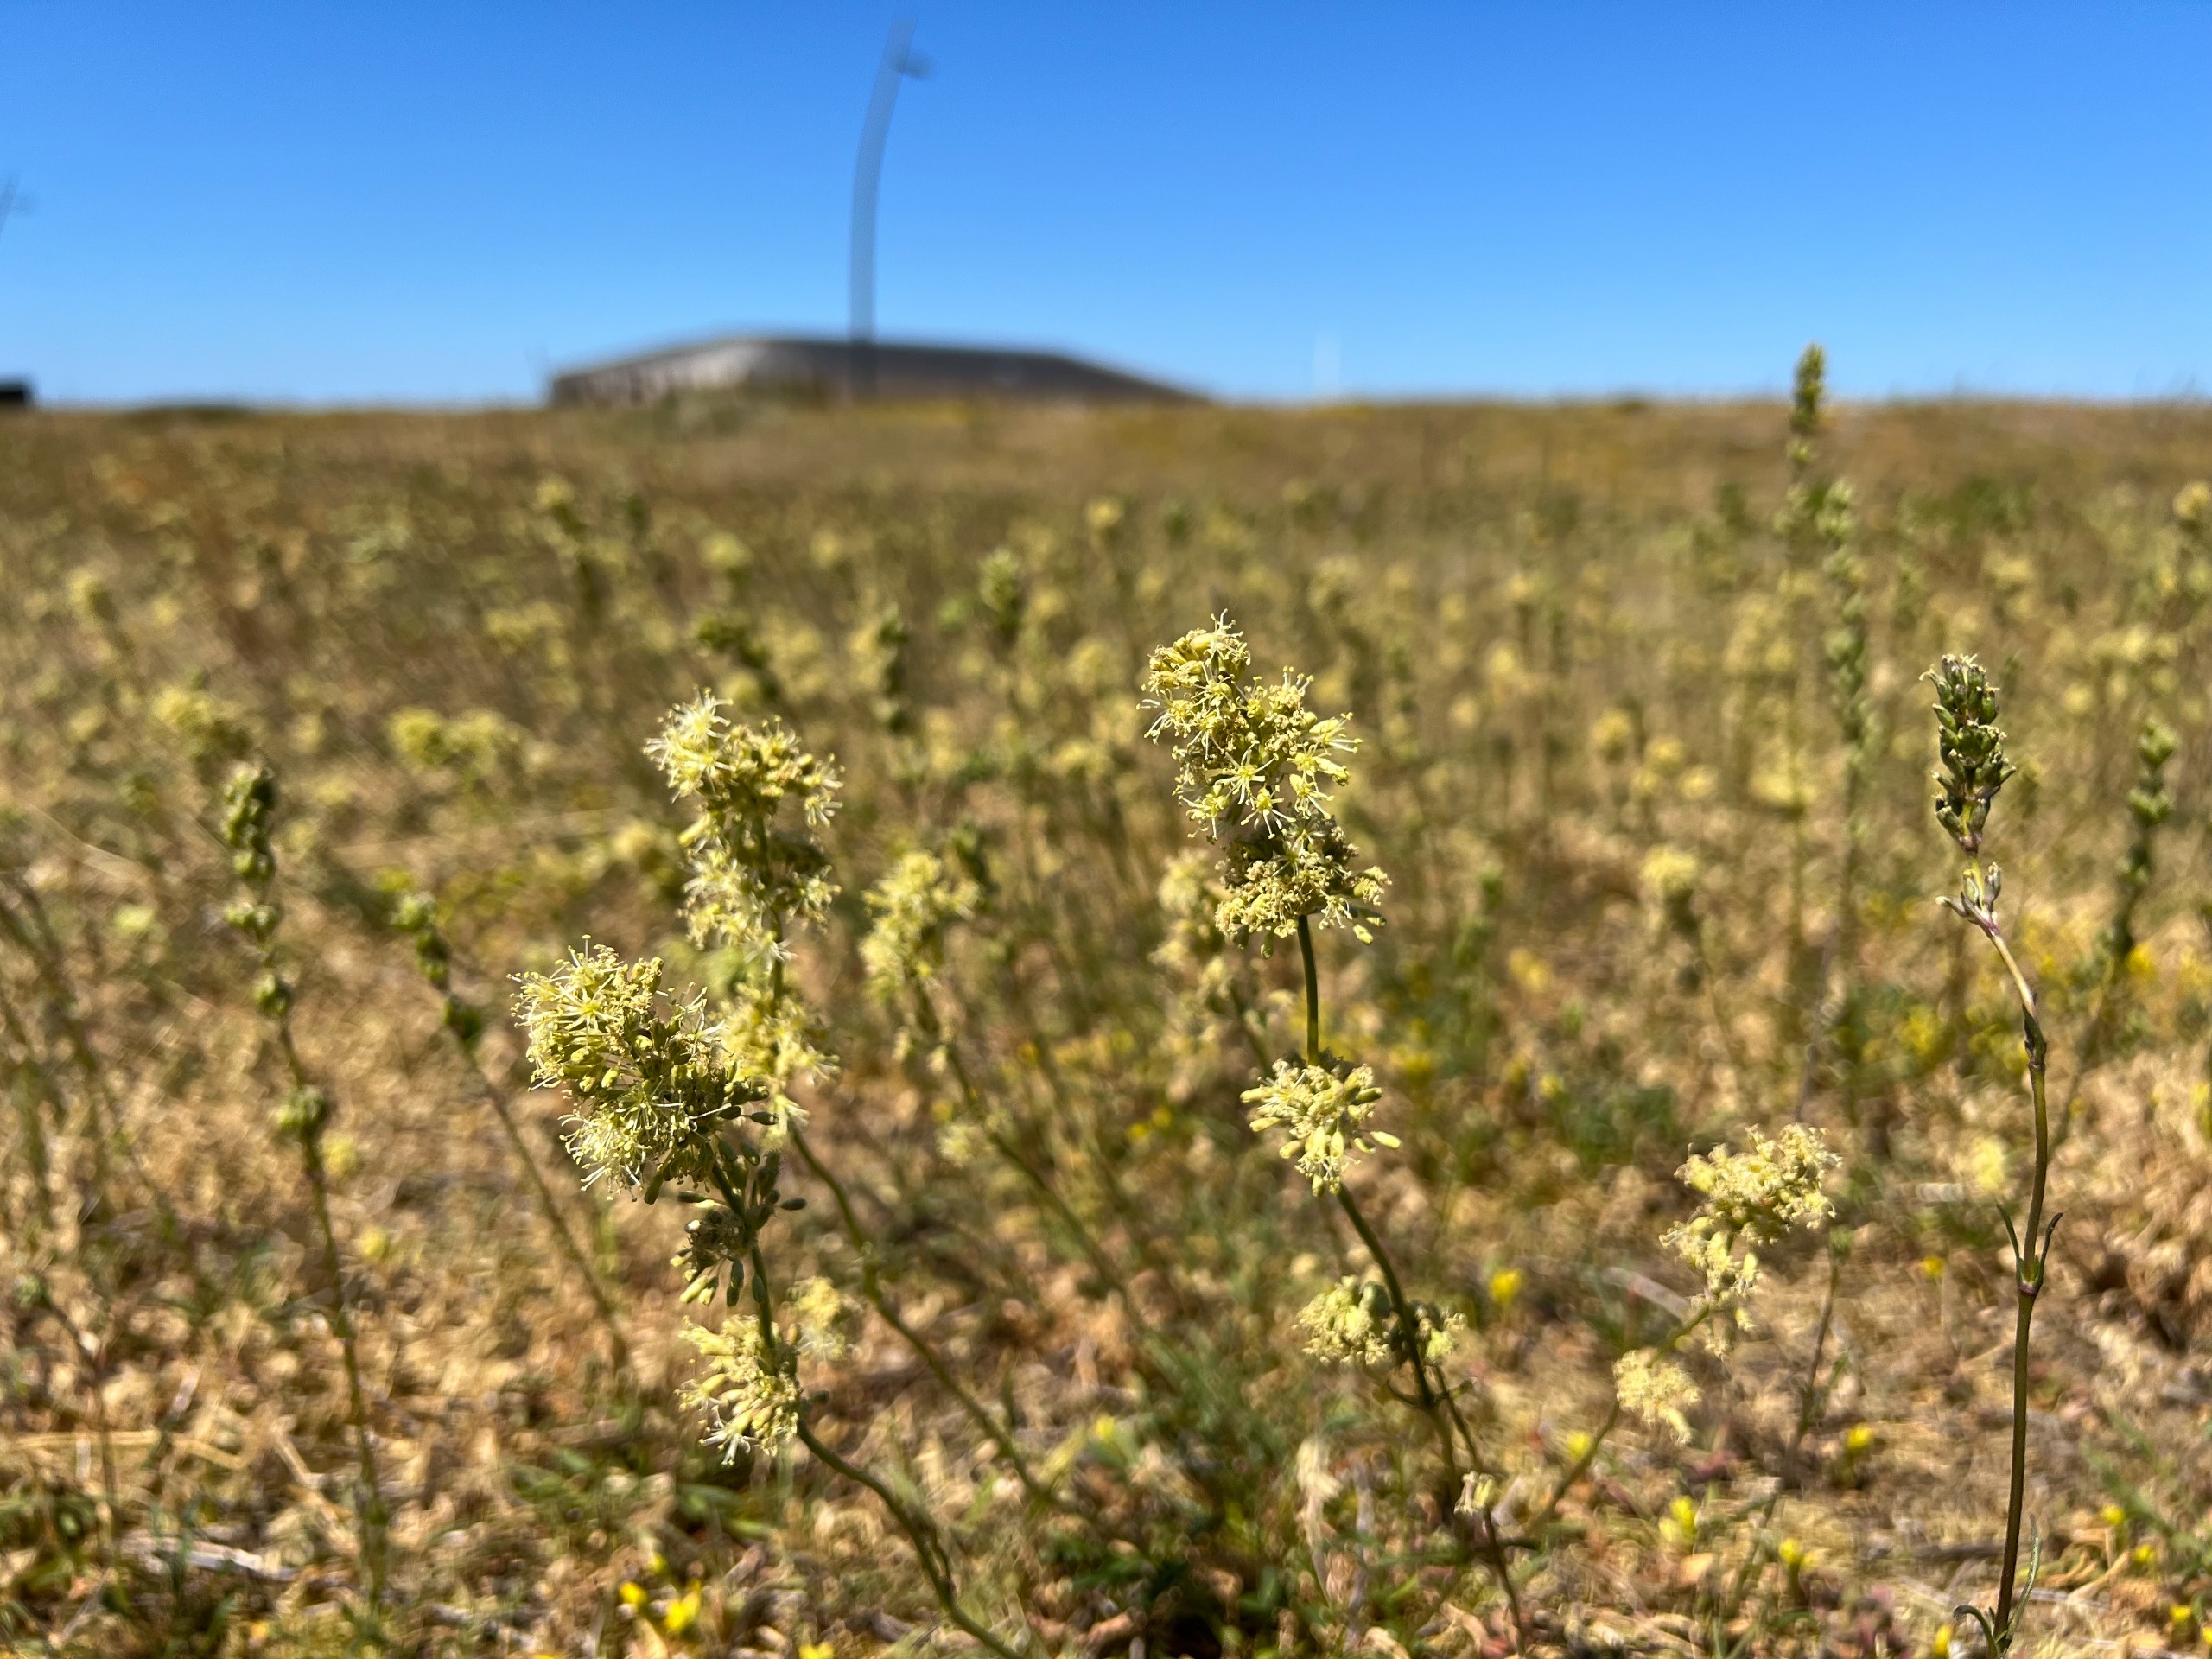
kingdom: Plantae
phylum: Tracheophyta
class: Magnoliopsida
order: Caryophyllales
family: Caryophyllaceae
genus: Silene
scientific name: Silene otites
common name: Klit-limurt
